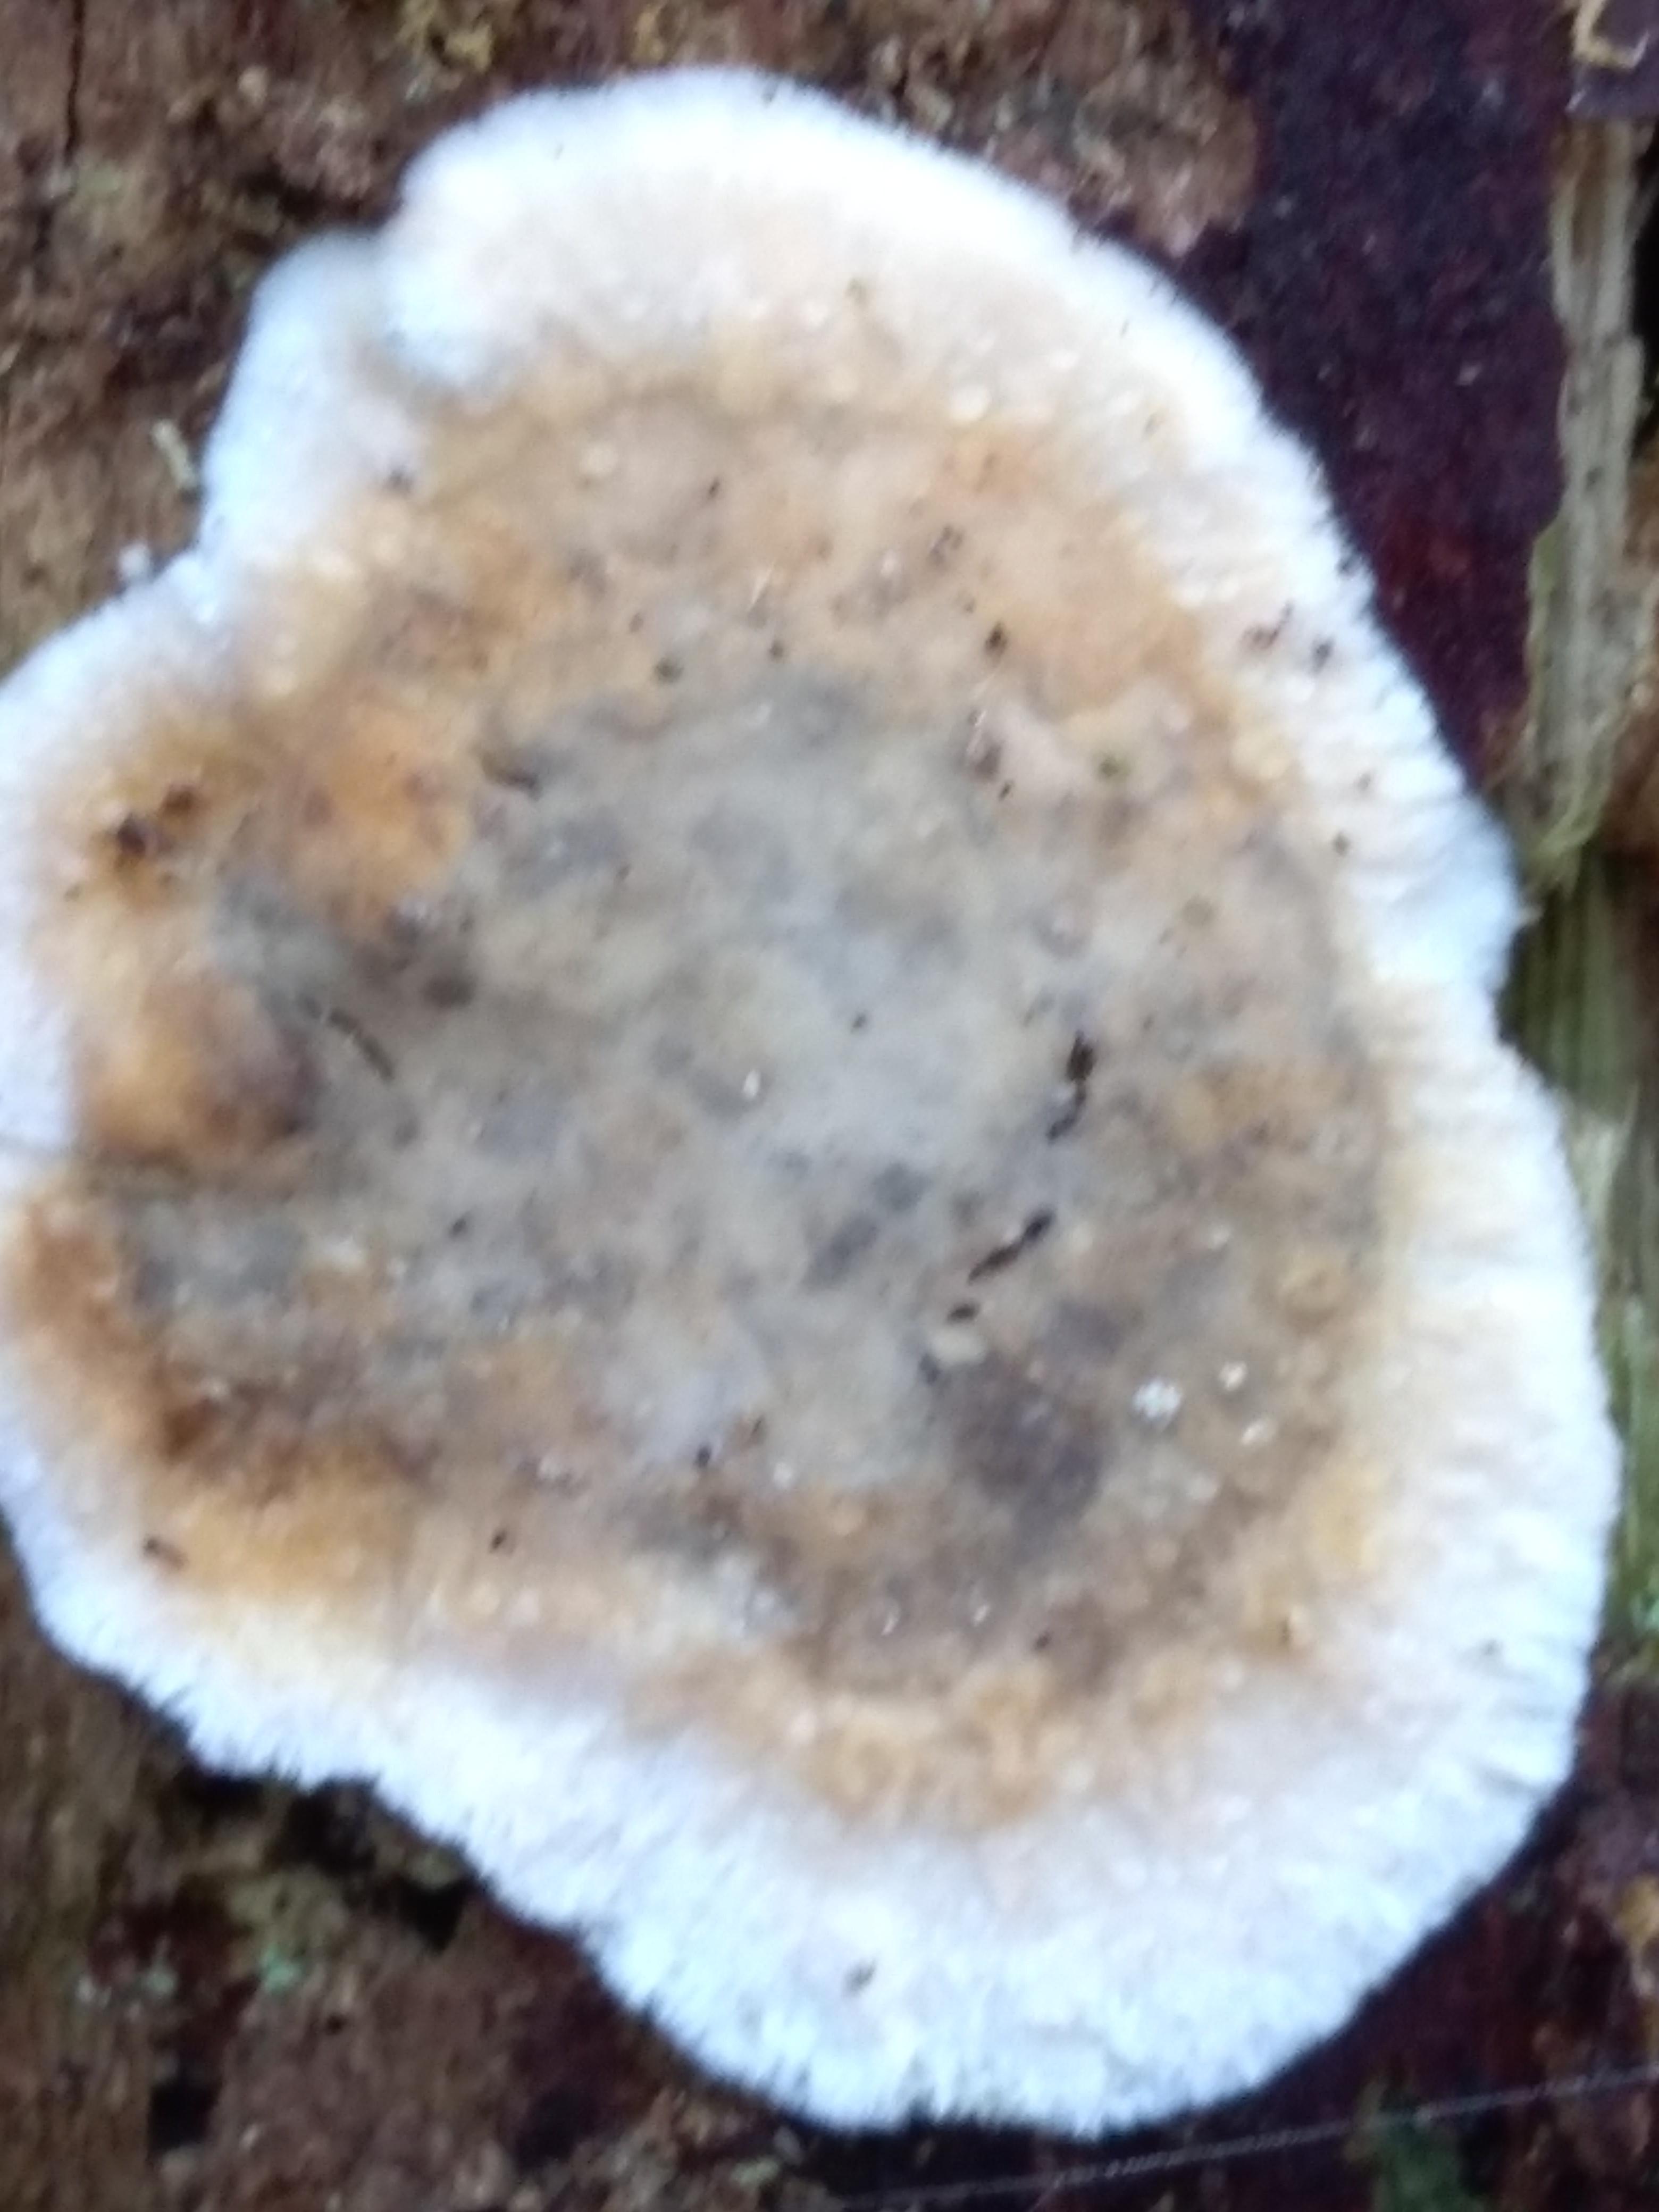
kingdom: Fungi
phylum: Basidiomycota
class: Agaricomycetes
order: Russulales
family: Stereaceae
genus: Stereum
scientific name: Stereum
